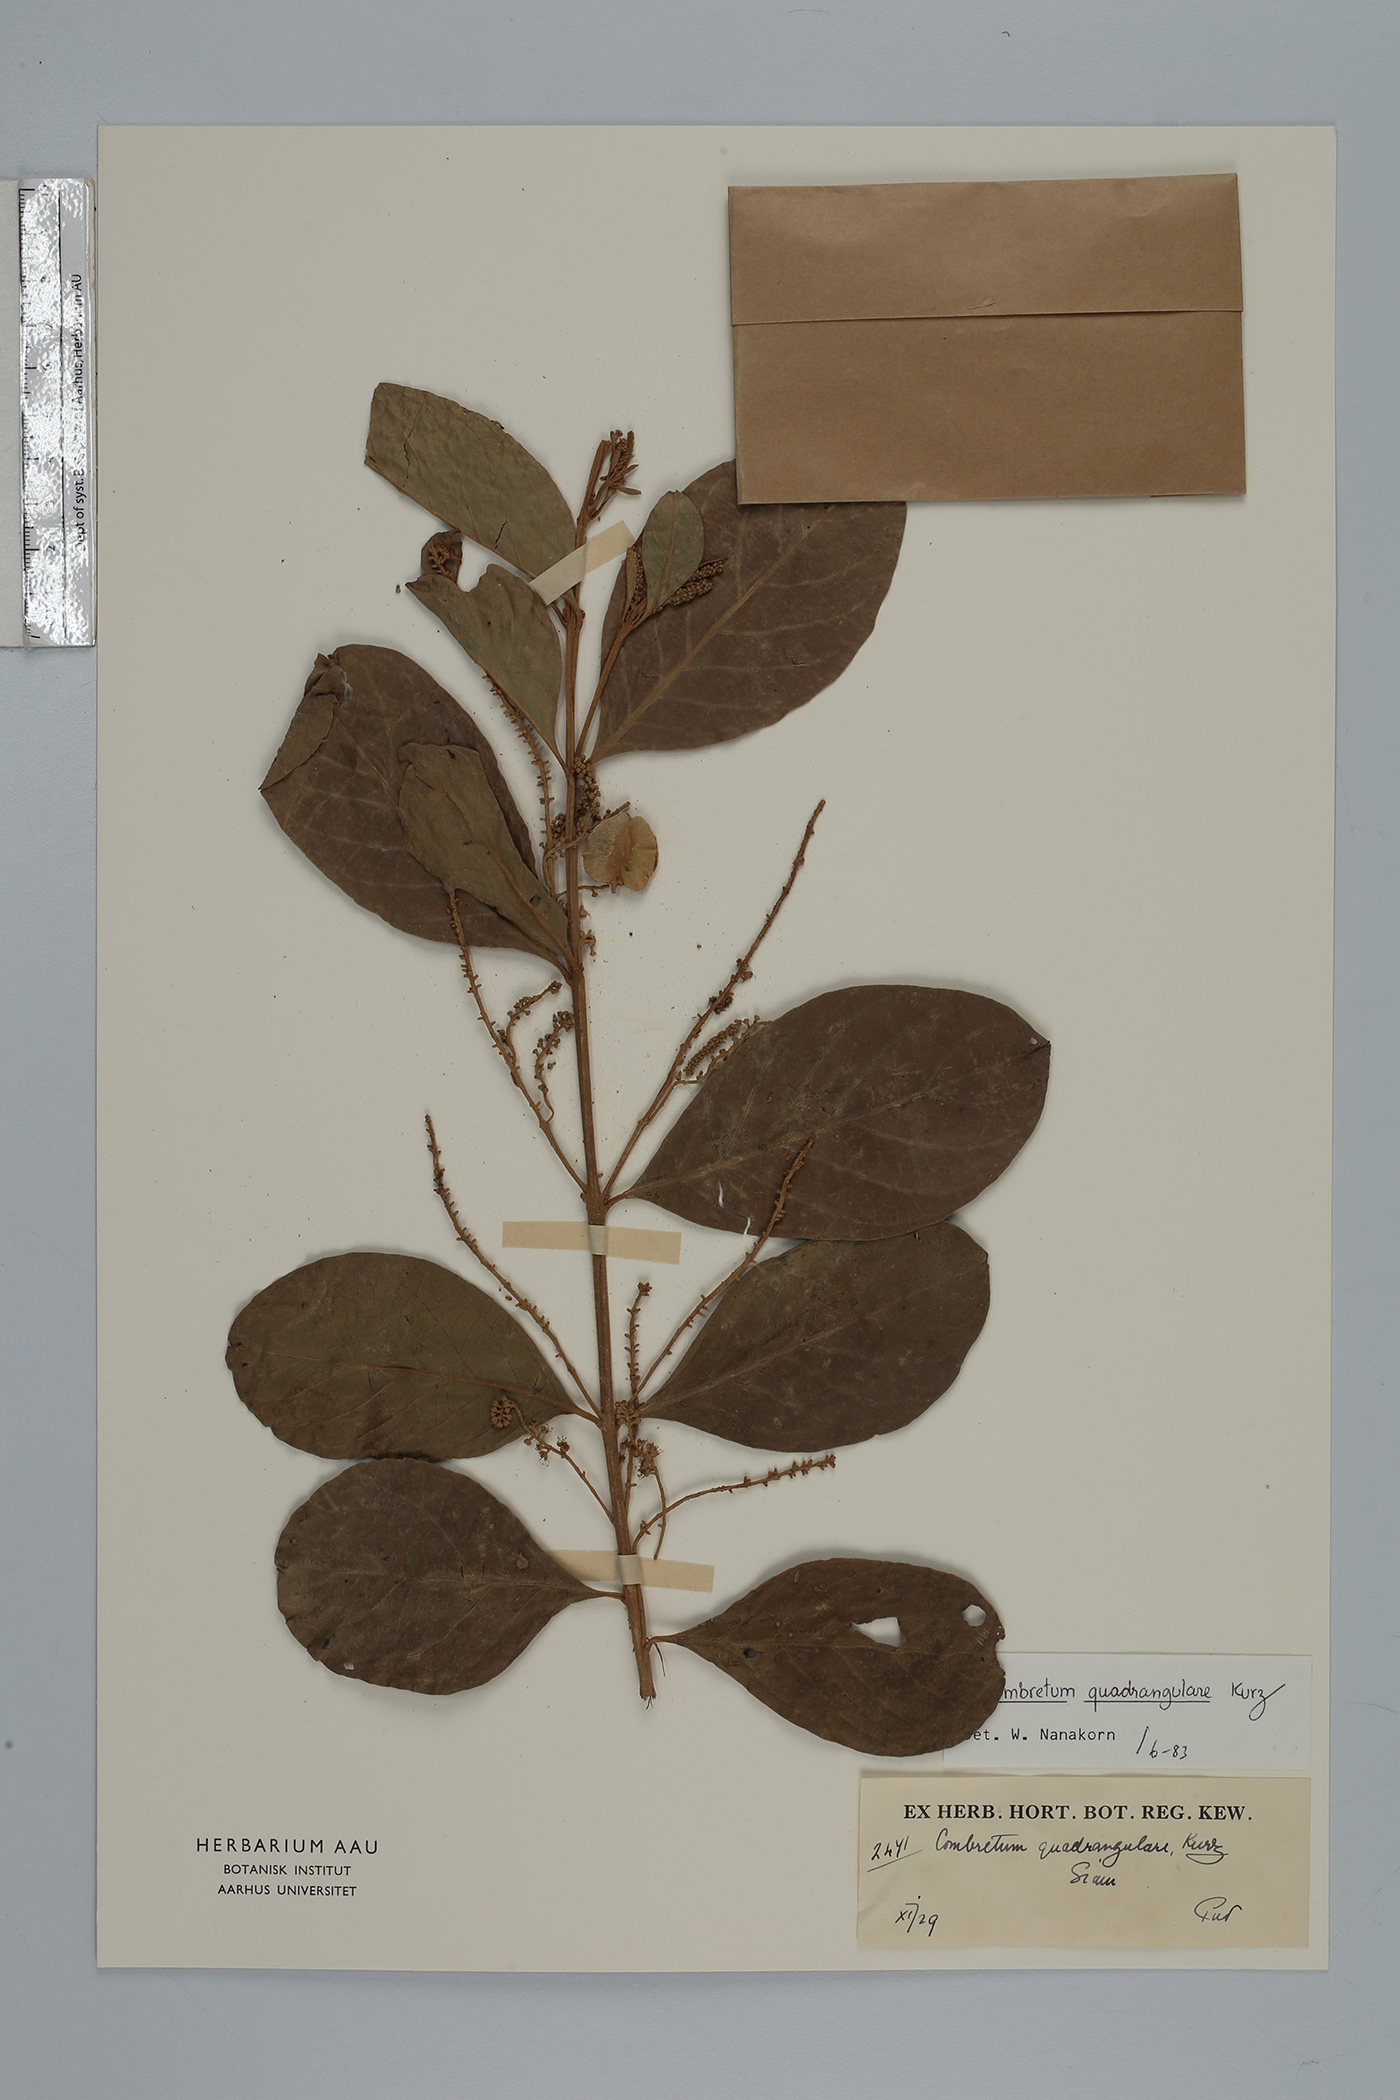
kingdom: Plantae
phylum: Tracheophyta
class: Magnoliopsida
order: Myrtales
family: Combretaceae
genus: Combretum
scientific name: Combretum quadrangulare
